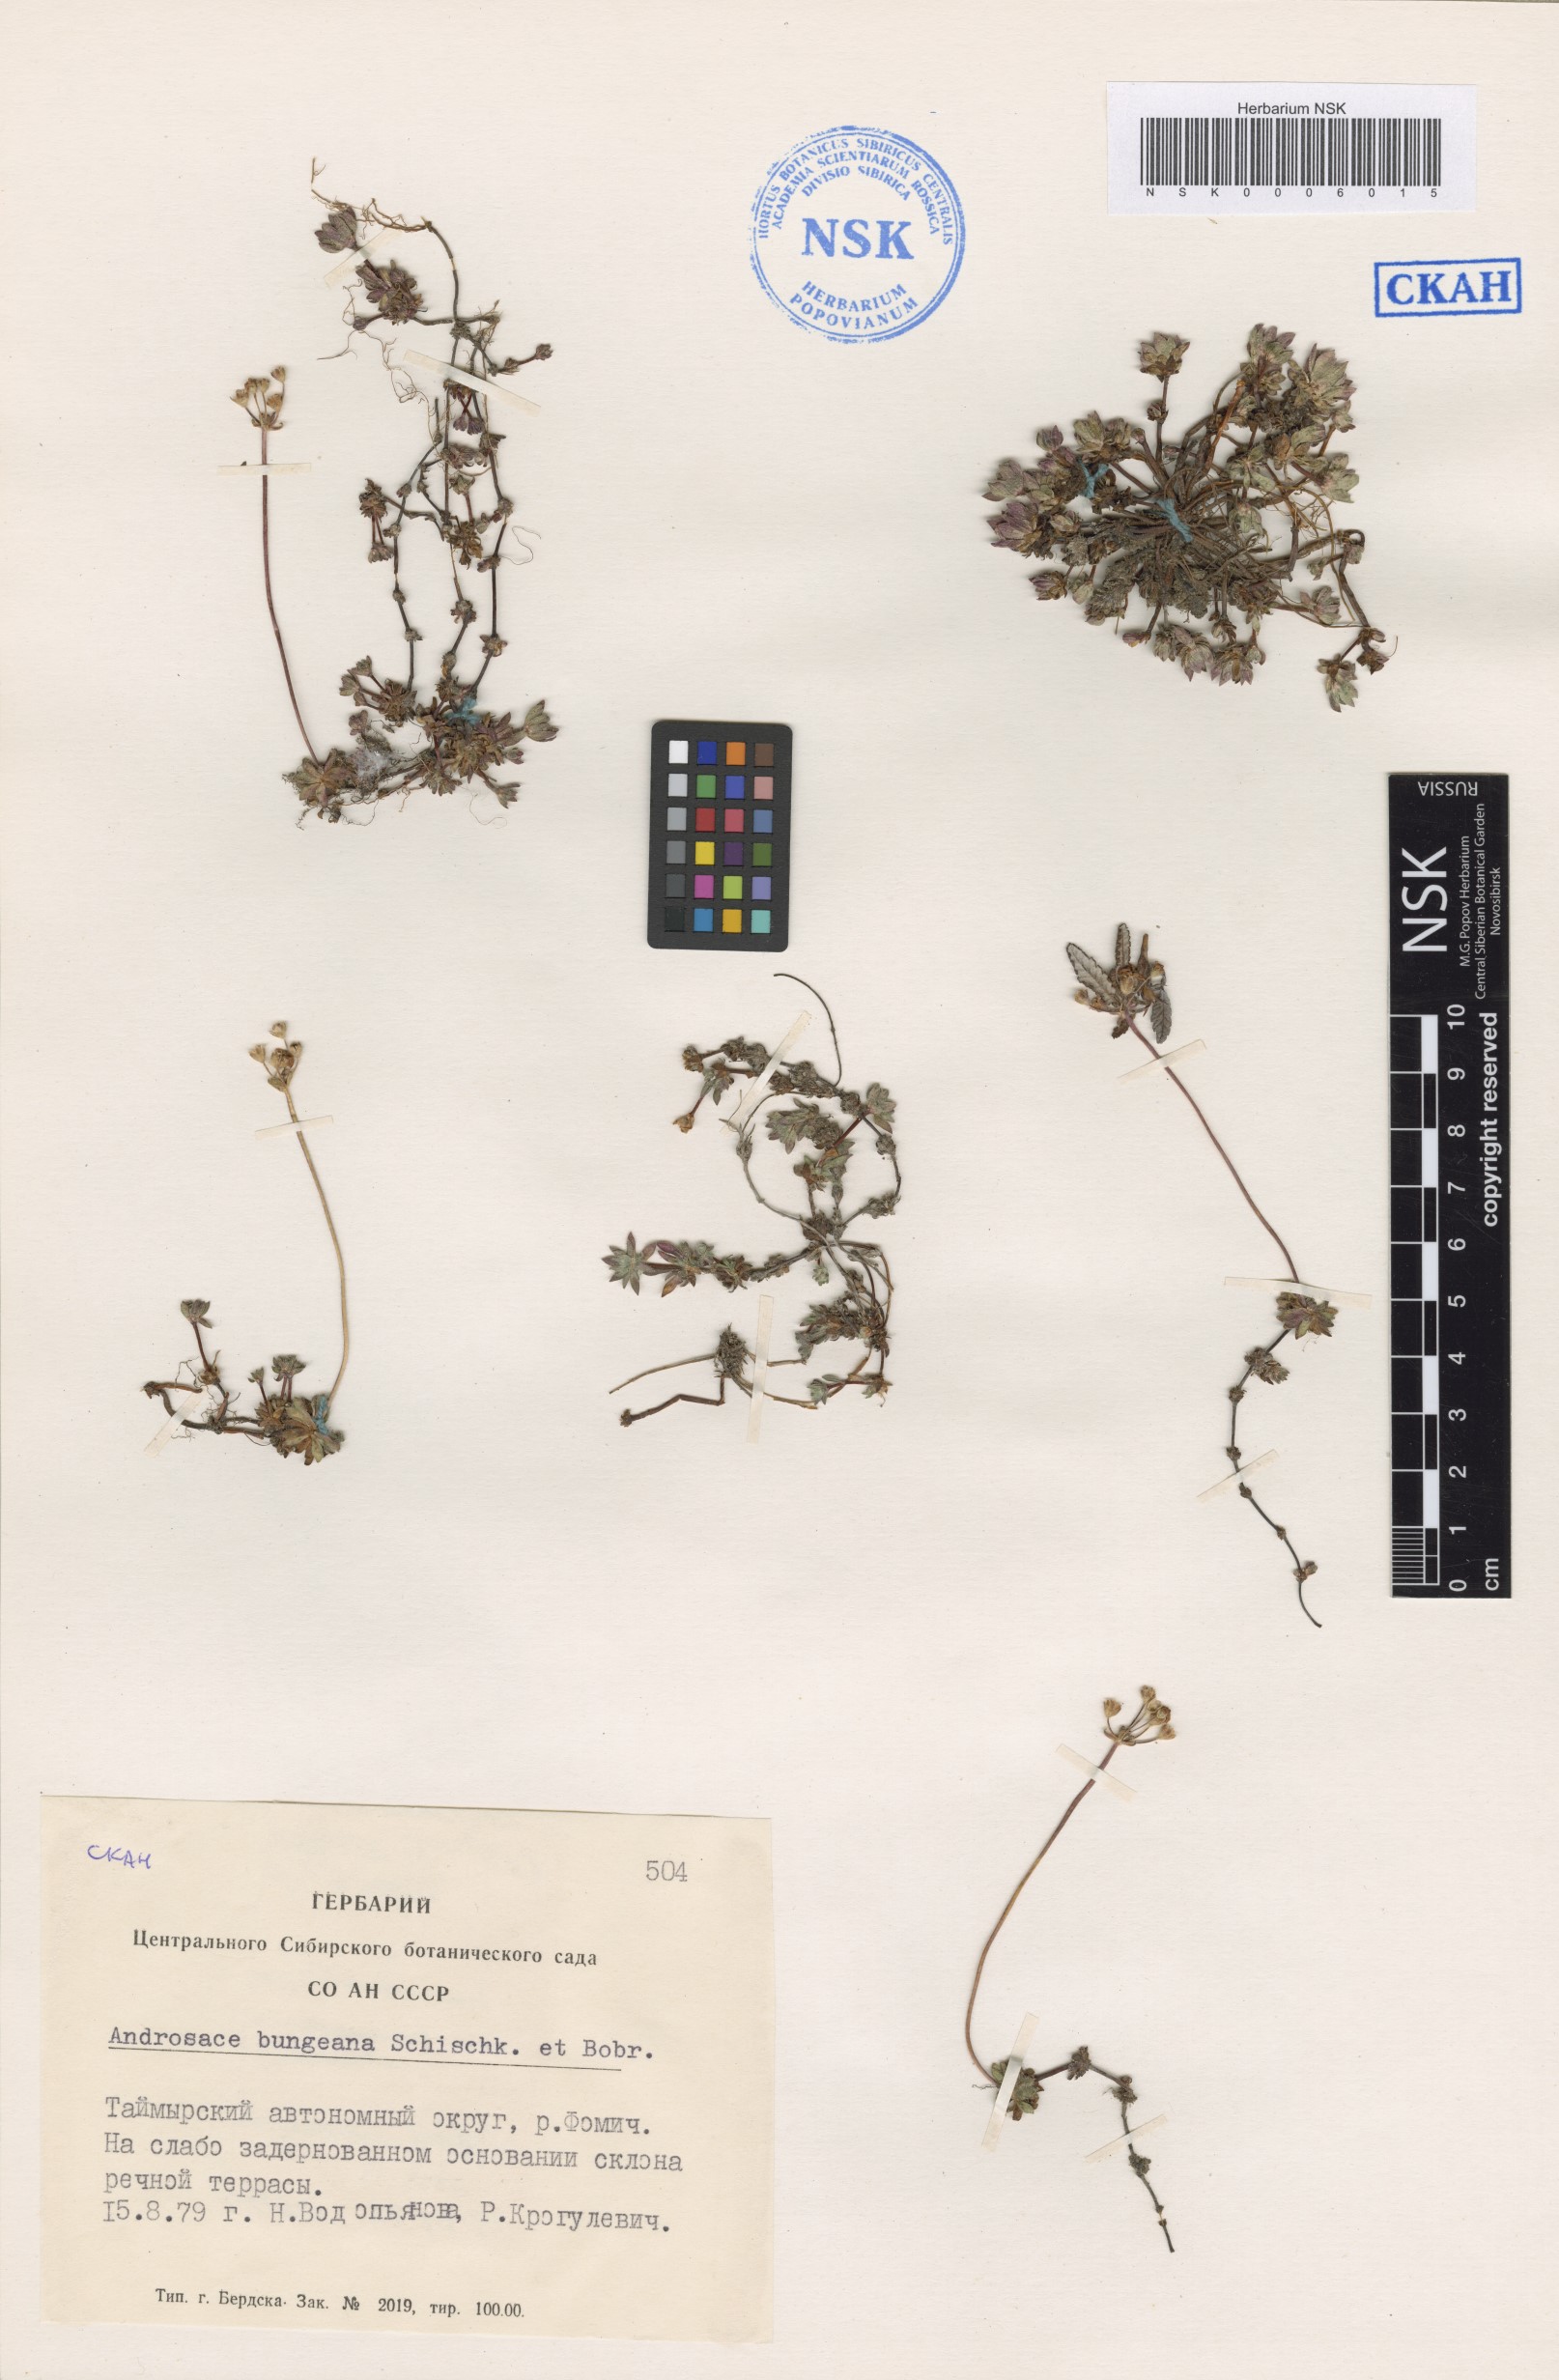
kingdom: Plantae
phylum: Tracheophyta
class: Magnoliopsida
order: Ericales
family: Primulaceae
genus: Androsace
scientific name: Androsace bungeana
